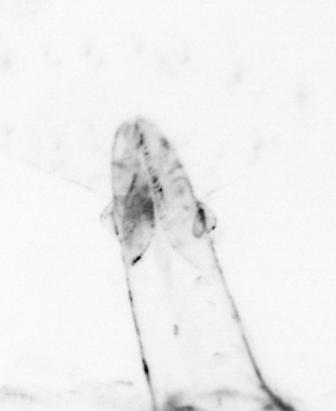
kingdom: Animalia
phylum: Chaetognatha
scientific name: Chaetognatha
